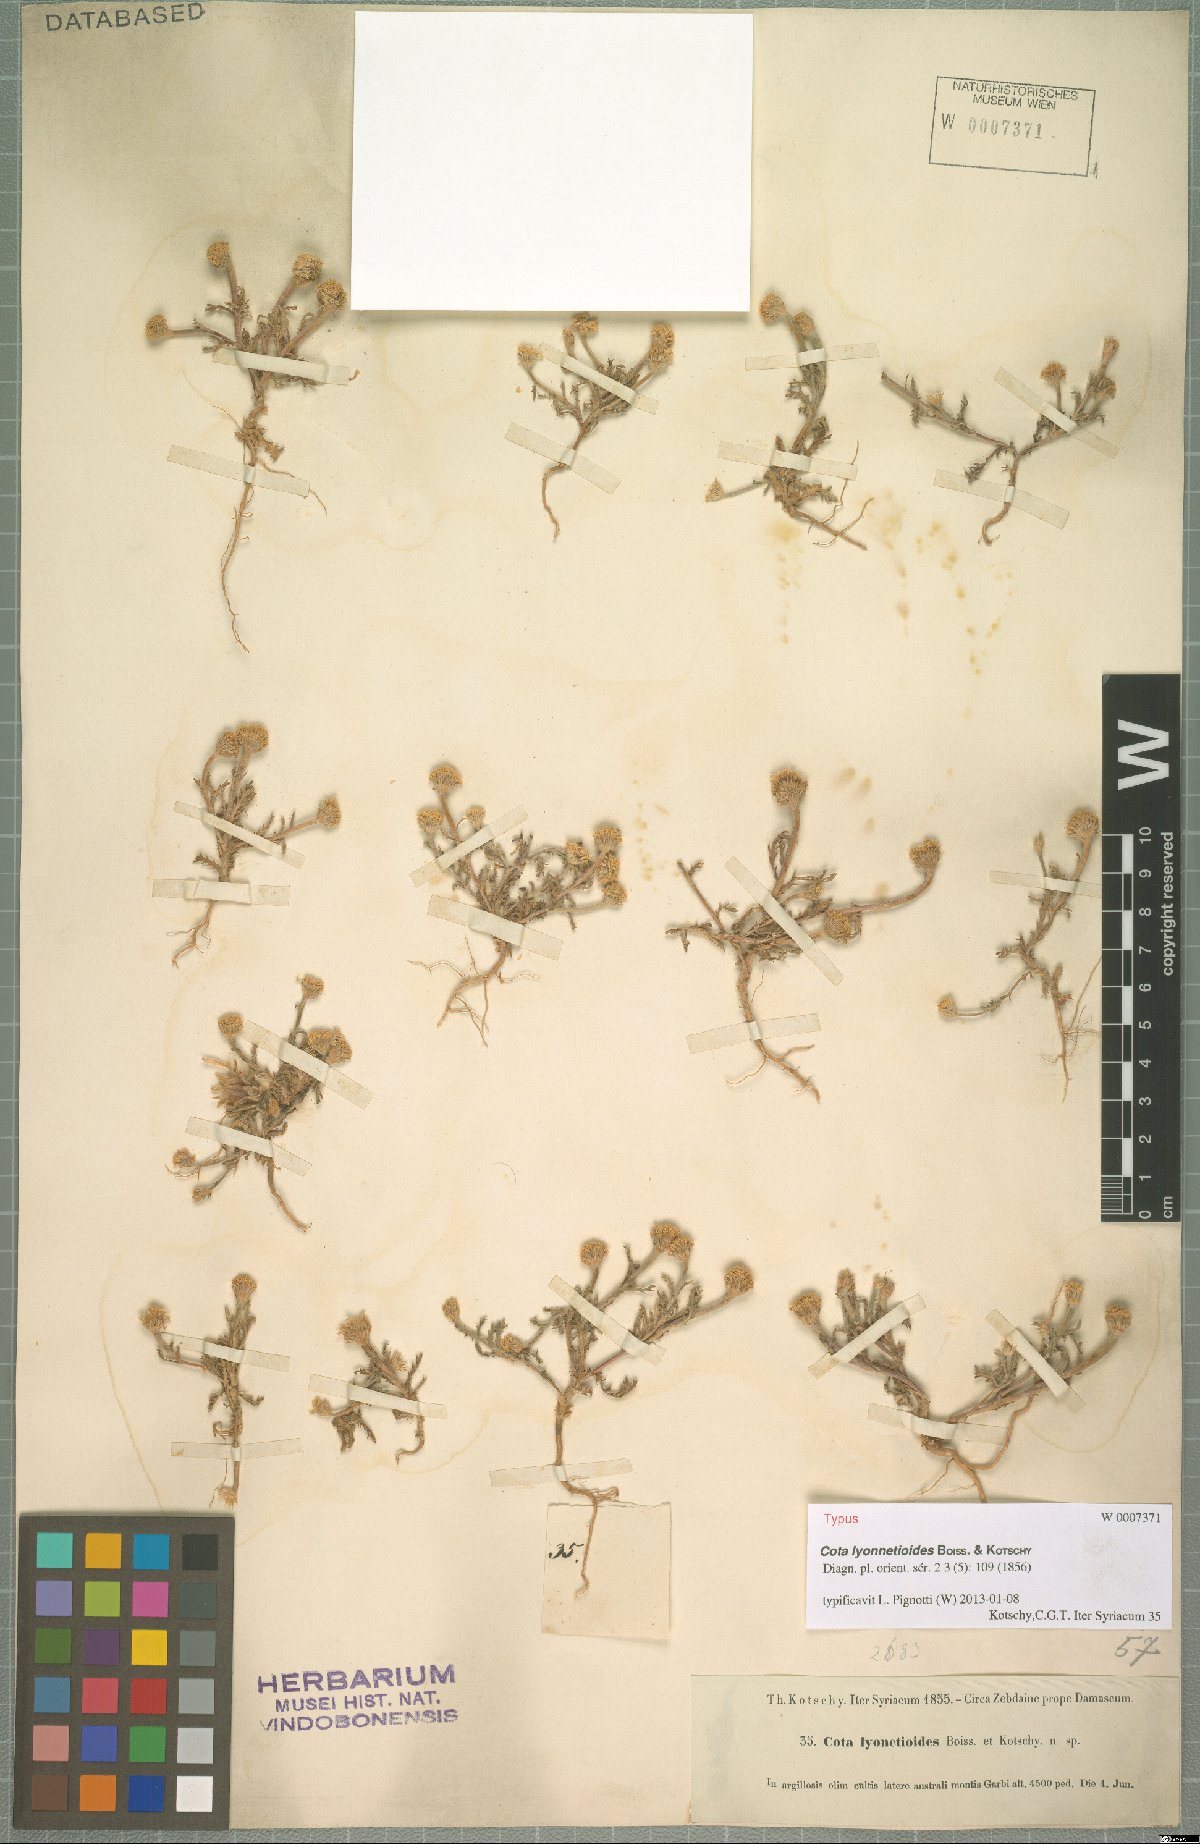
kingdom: Plantae
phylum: Tracheophyta
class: Magnoliopsida
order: Asterales
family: Asteraceae
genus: Cota
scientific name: Cota lyonnetioides
